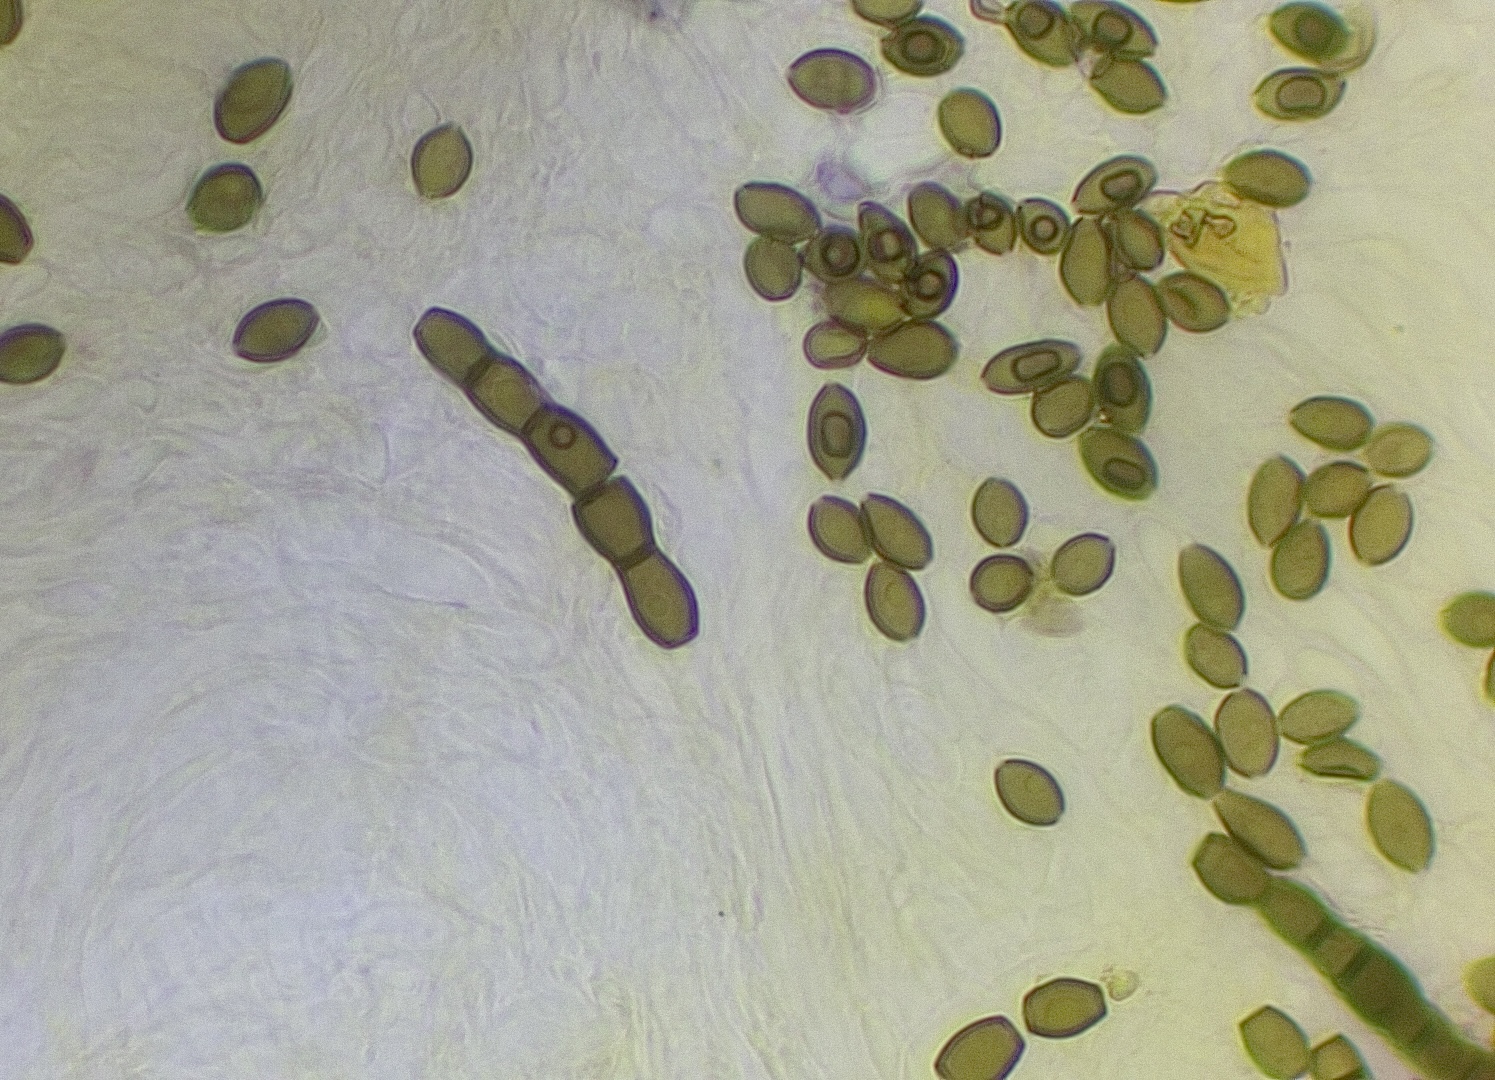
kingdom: Fungi
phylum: Ascomycota
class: Leotiomycetes
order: Helotiales
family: Helotiaceae
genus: Bispora
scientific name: Bispora pallescens
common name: måtte-snitskive
